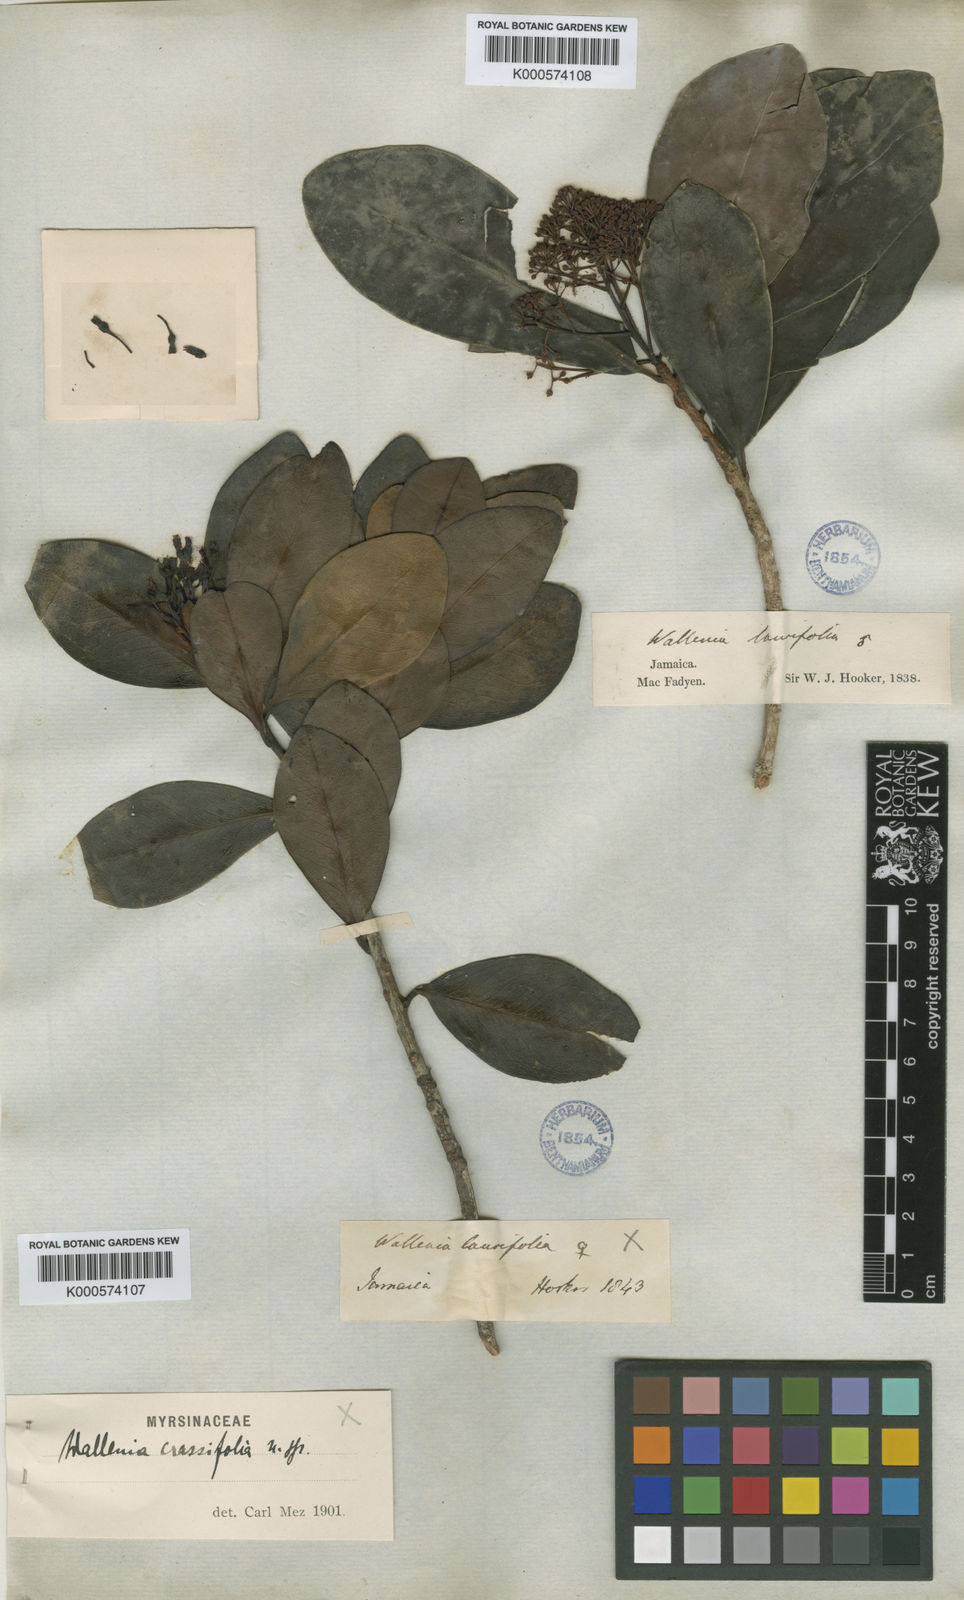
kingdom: Plantae
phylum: Tracheophyta
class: Magnoliopsida
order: Ericales
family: Primulaceae
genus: Wallenia
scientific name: Wallenia crassifolia
